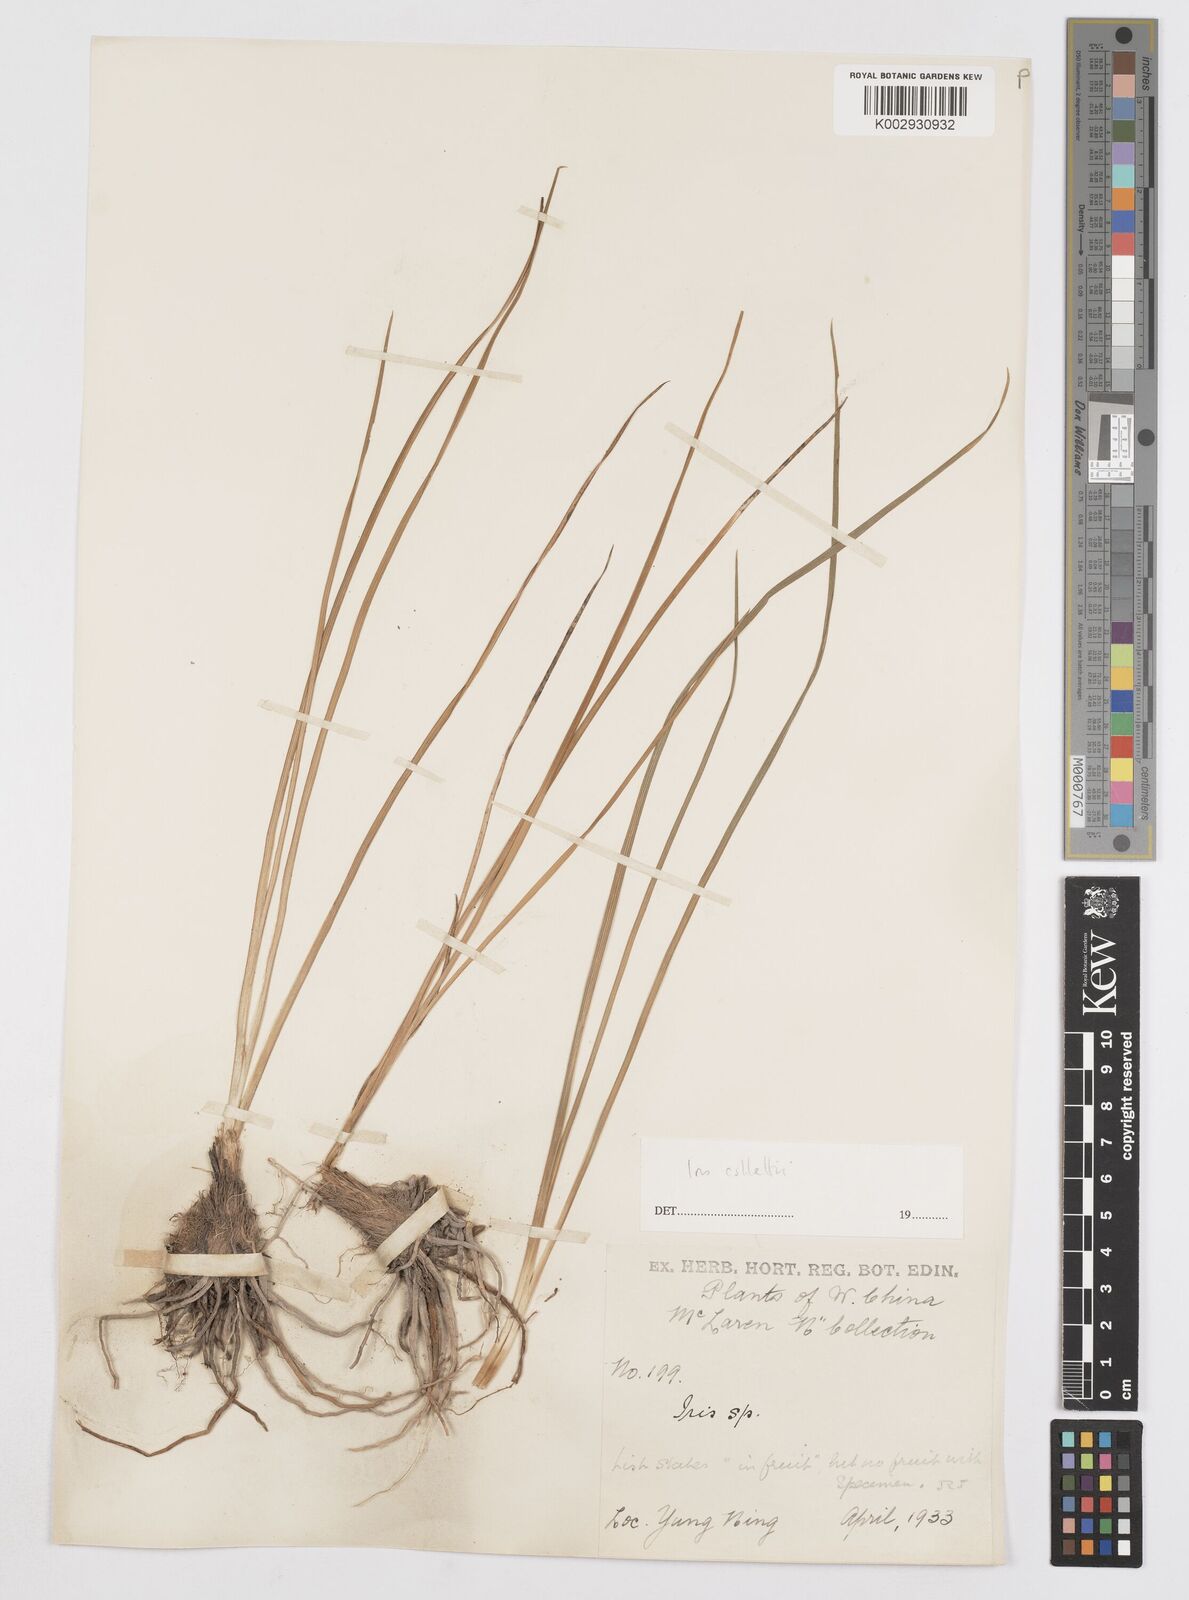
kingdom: Plantae
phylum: Tracheophyta
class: Liliopsida
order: Asparagales
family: Iridaceae
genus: Iris
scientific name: Iris collettii
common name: Plateau iris
